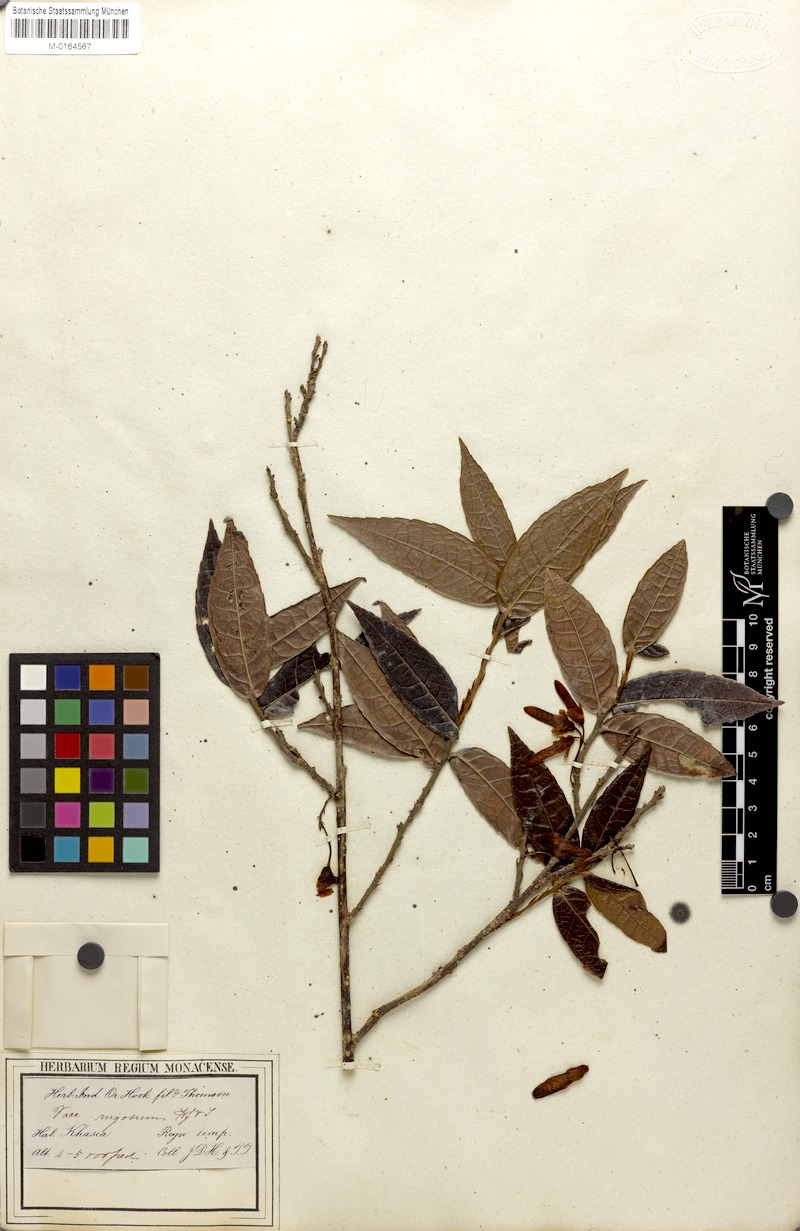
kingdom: Plantae
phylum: Tracheophyta
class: Magnoliopsida
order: Ericales
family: Ericaceae
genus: Agapetes
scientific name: Agapetes incurvata
